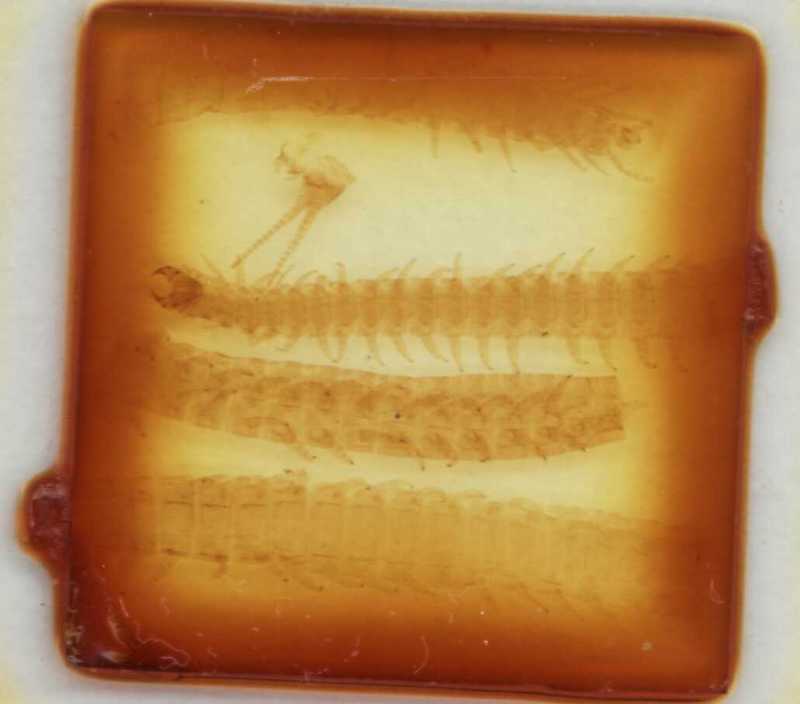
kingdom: Animalia
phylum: Arthropoda
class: Chilopoda
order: Geophilomorpha
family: Himantariidae
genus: Stigmatogaster
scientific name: Stigmatogaster gracilis
